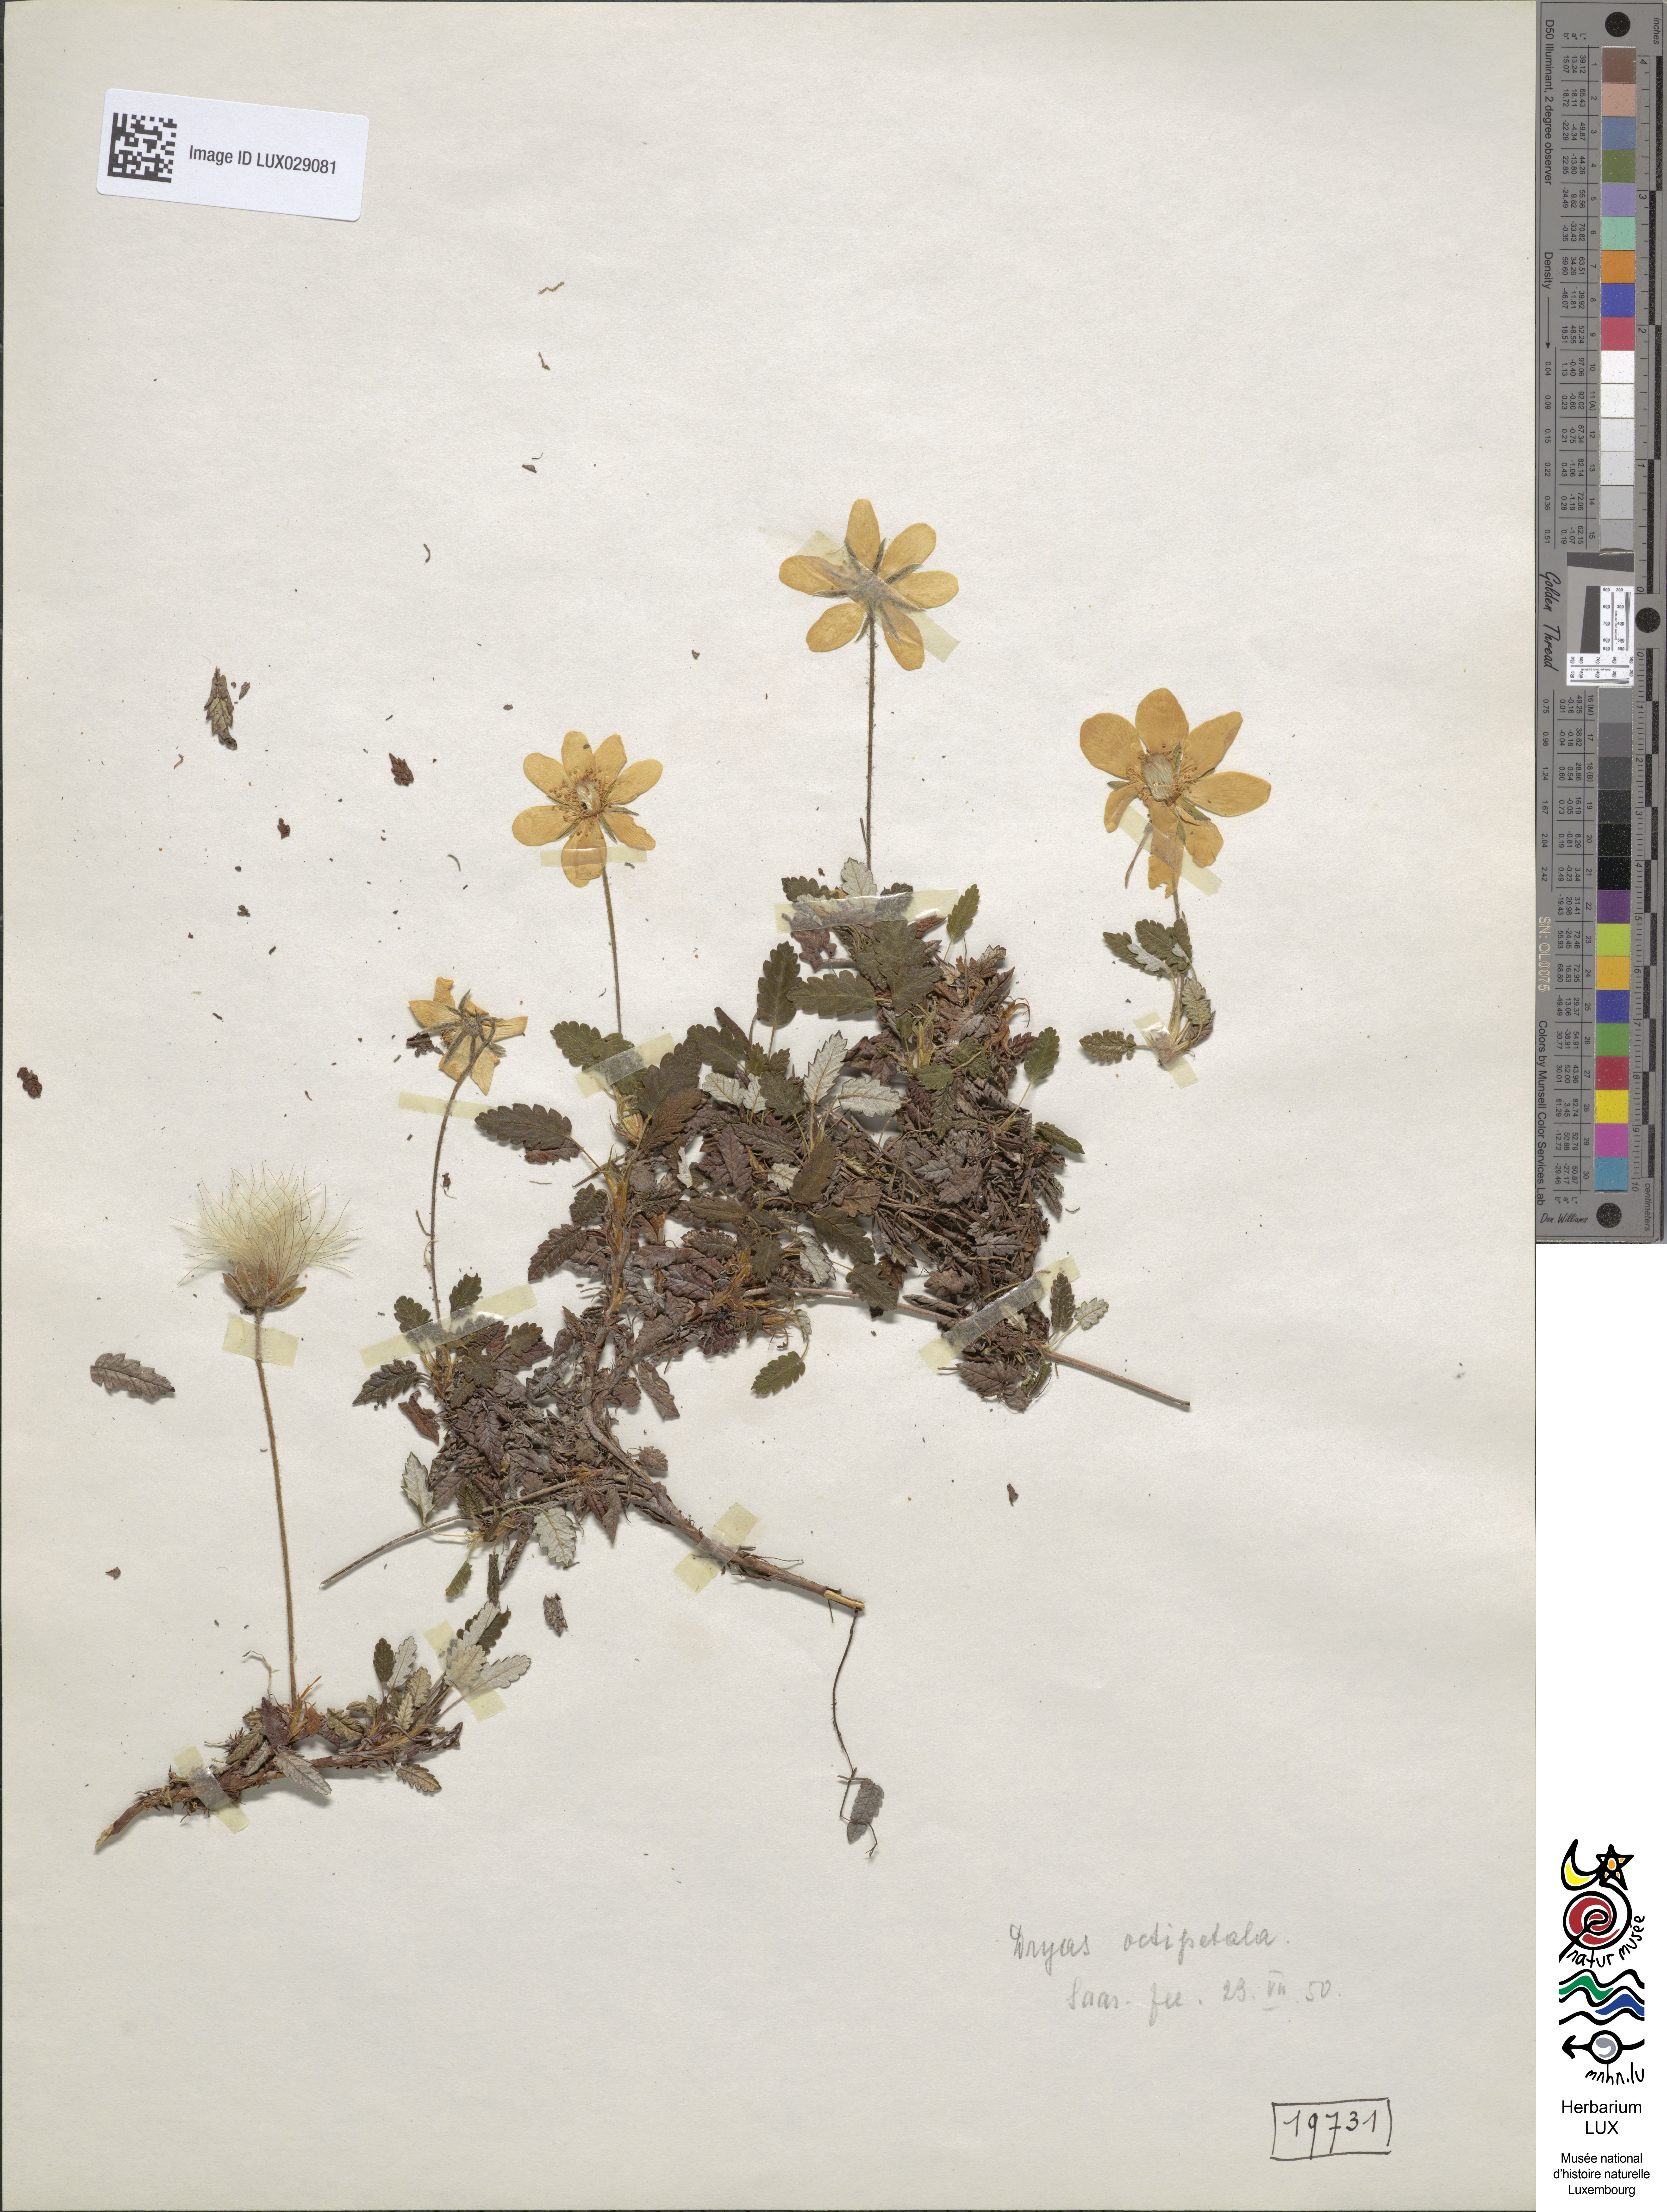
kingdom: Plantae
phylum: Tracheophyta
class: Magnoliopsida
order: Rosales
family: Rosaceae
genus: Dryas
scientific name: Dryas octopetala
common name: Eight-petal mountain-avens
